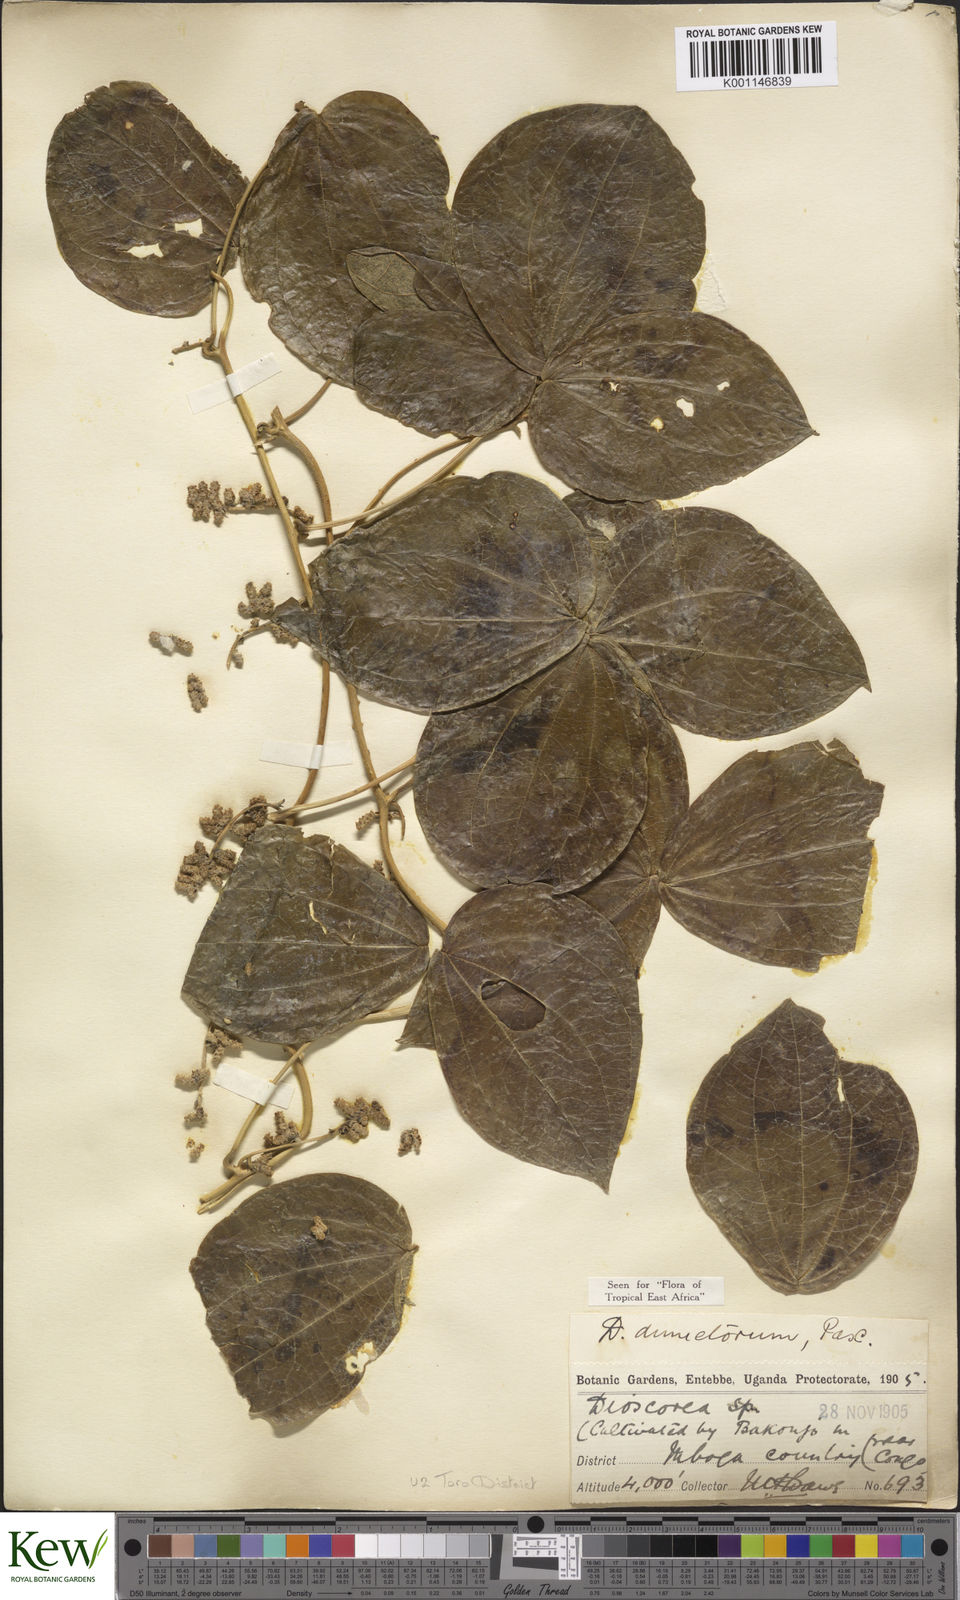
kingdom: Plantae
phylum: Tracheophyta
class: Liliopsida
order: Dioscoreales
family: Dioscoreaceae
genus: Dioscorea
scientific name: Dioscorea dumetorum
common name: African bitter yam
